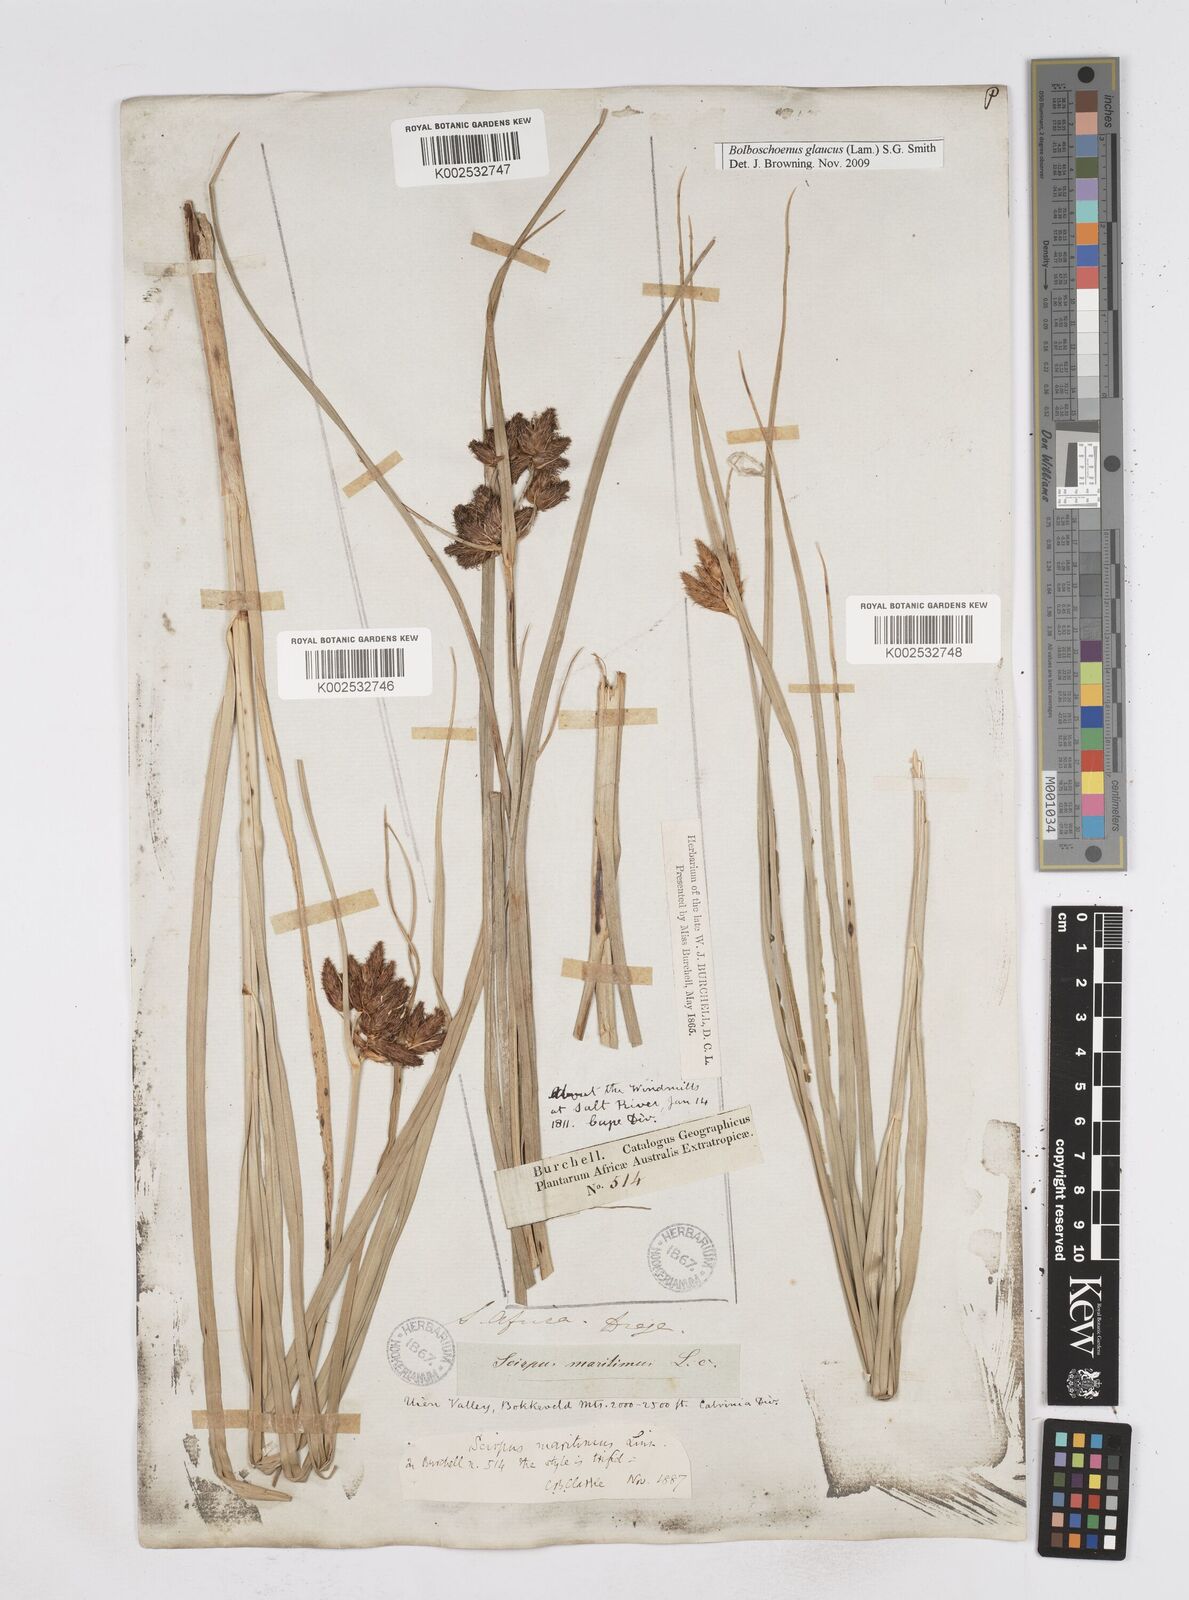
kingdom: Plantae
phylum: Tracheophyta
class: Liliopsida
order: Poales
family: Cyperaceae
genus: Bolboschoenus
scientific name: Bolboschoenus maritimus
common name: Sea club-rush
